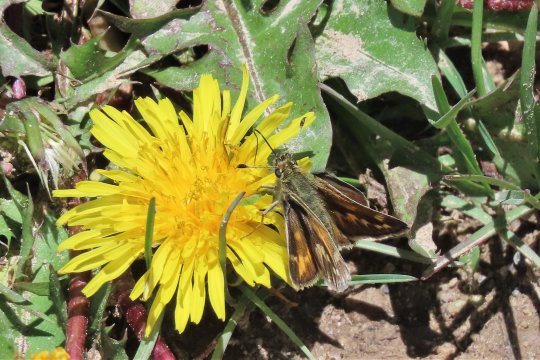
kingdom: Animalia
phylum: Arthropoda
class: Insecta
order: Lepidoptera
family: Hesperiidae
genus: Polites
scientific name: Polites sabuleti
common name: Draco Skipper
